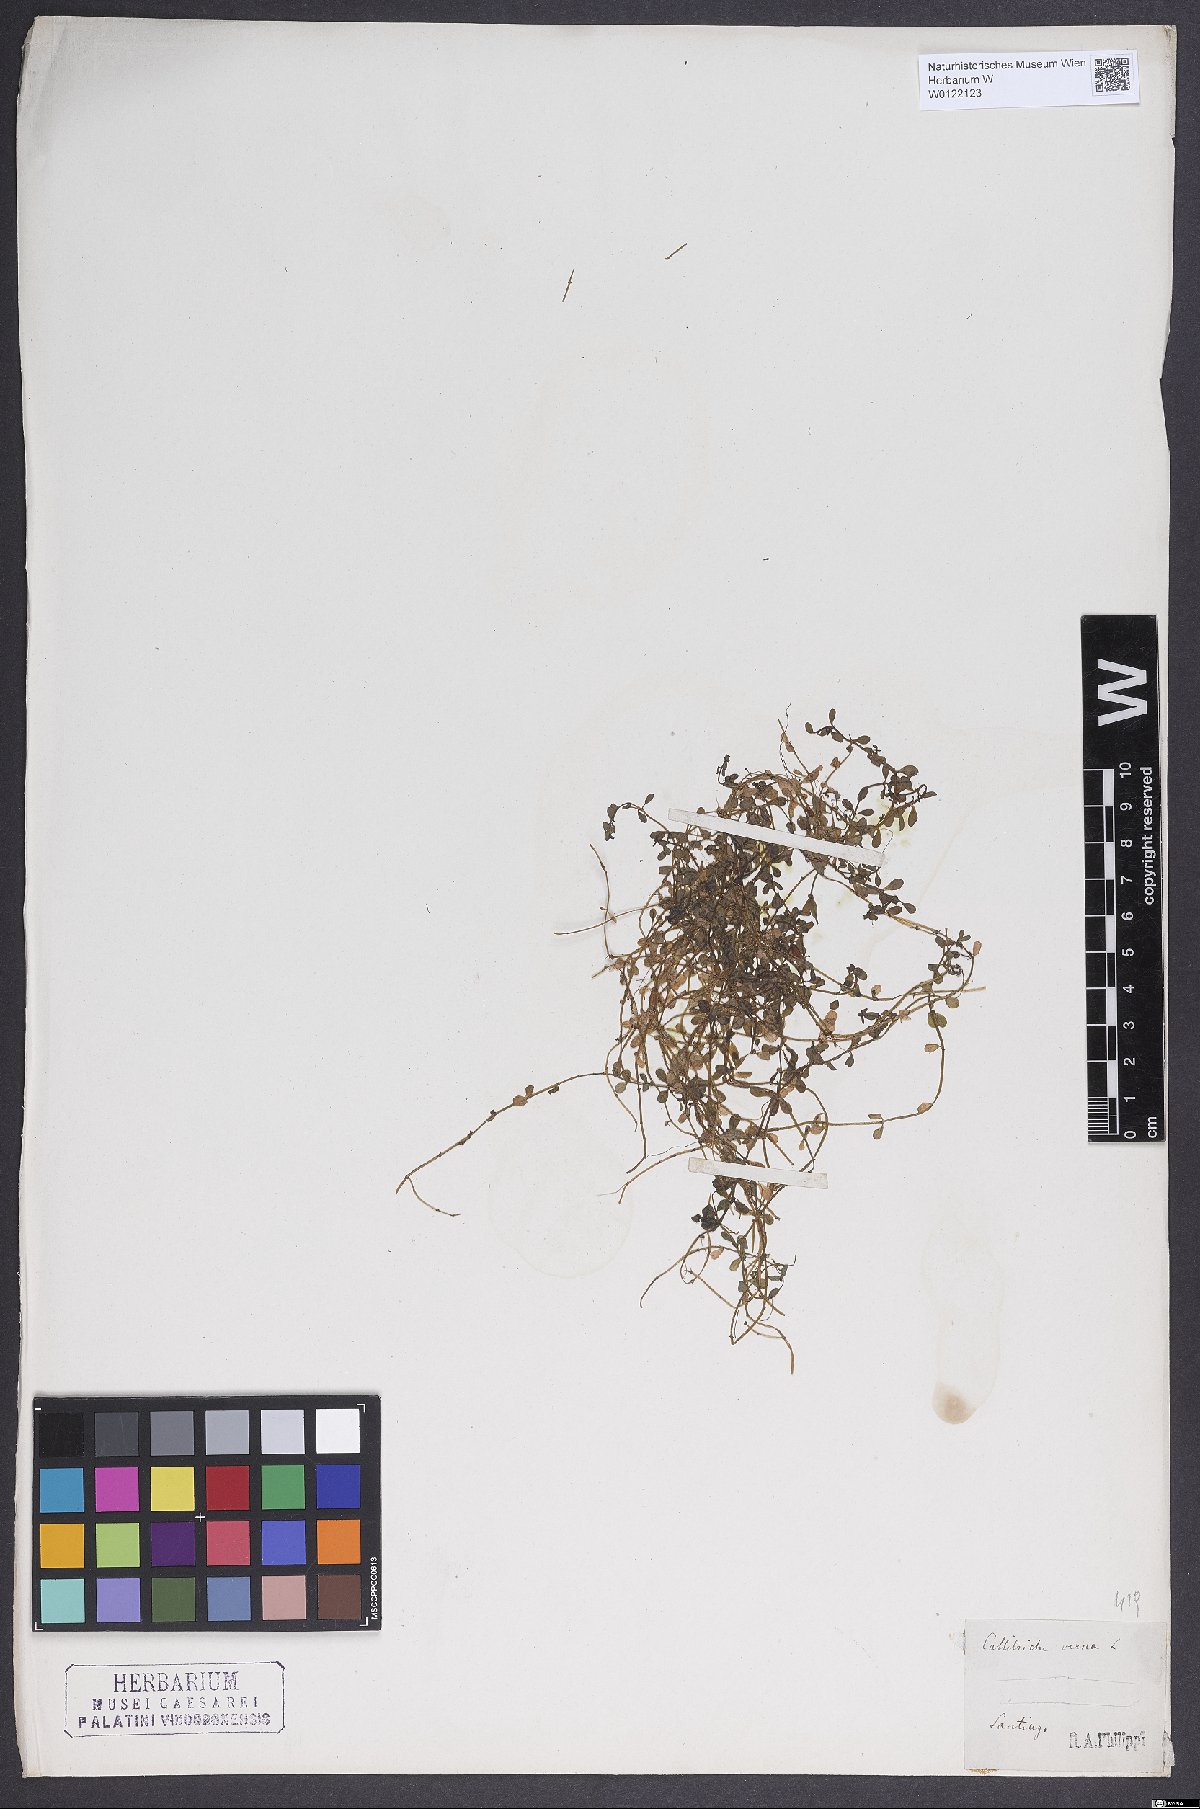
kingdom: Plantae
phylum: Tracheophyta
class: Magnoliopsida
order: Lamiales
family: Plantaginaceae
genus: Callitriche
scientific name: Callitriche obtusangula
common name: Blunt-fruited water-starwort
